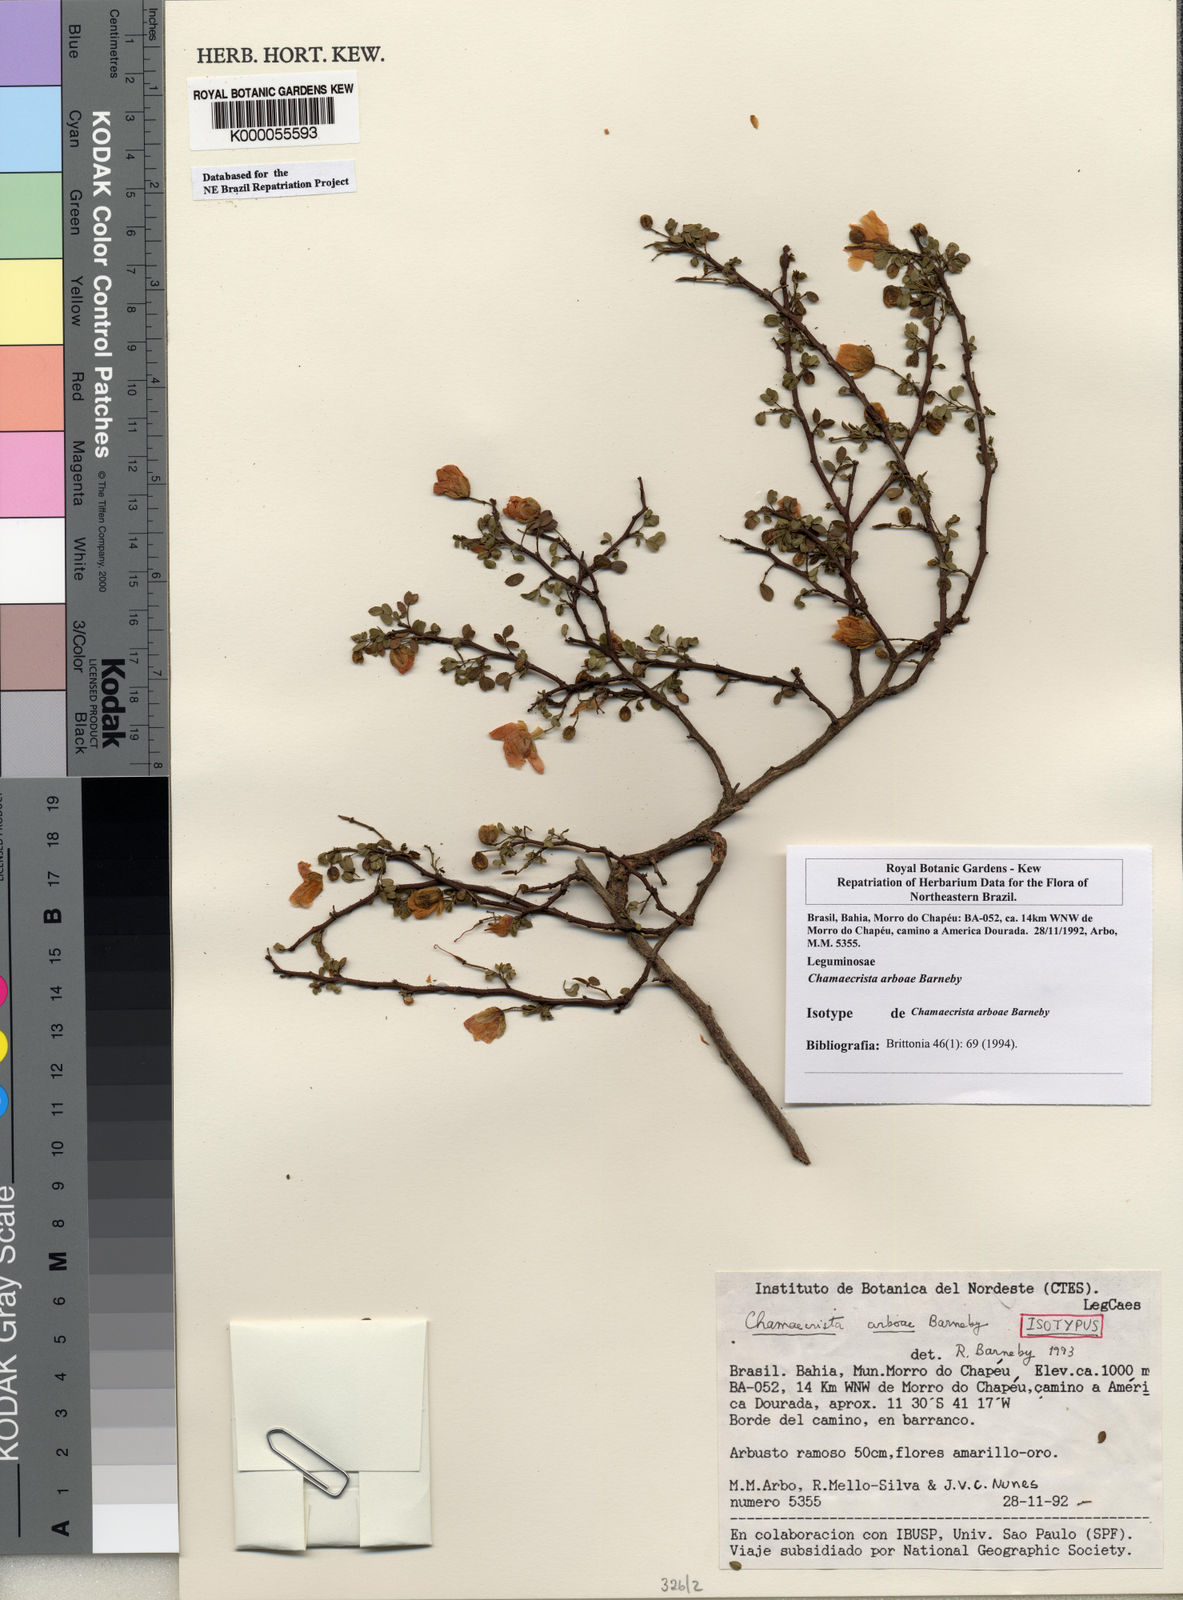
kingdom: Plantae
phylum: Tracheophyta
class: Magnoliopsida
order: Fabales
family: Fabaceae
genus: Chamaecrista
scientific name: Chamaecrista arboae
